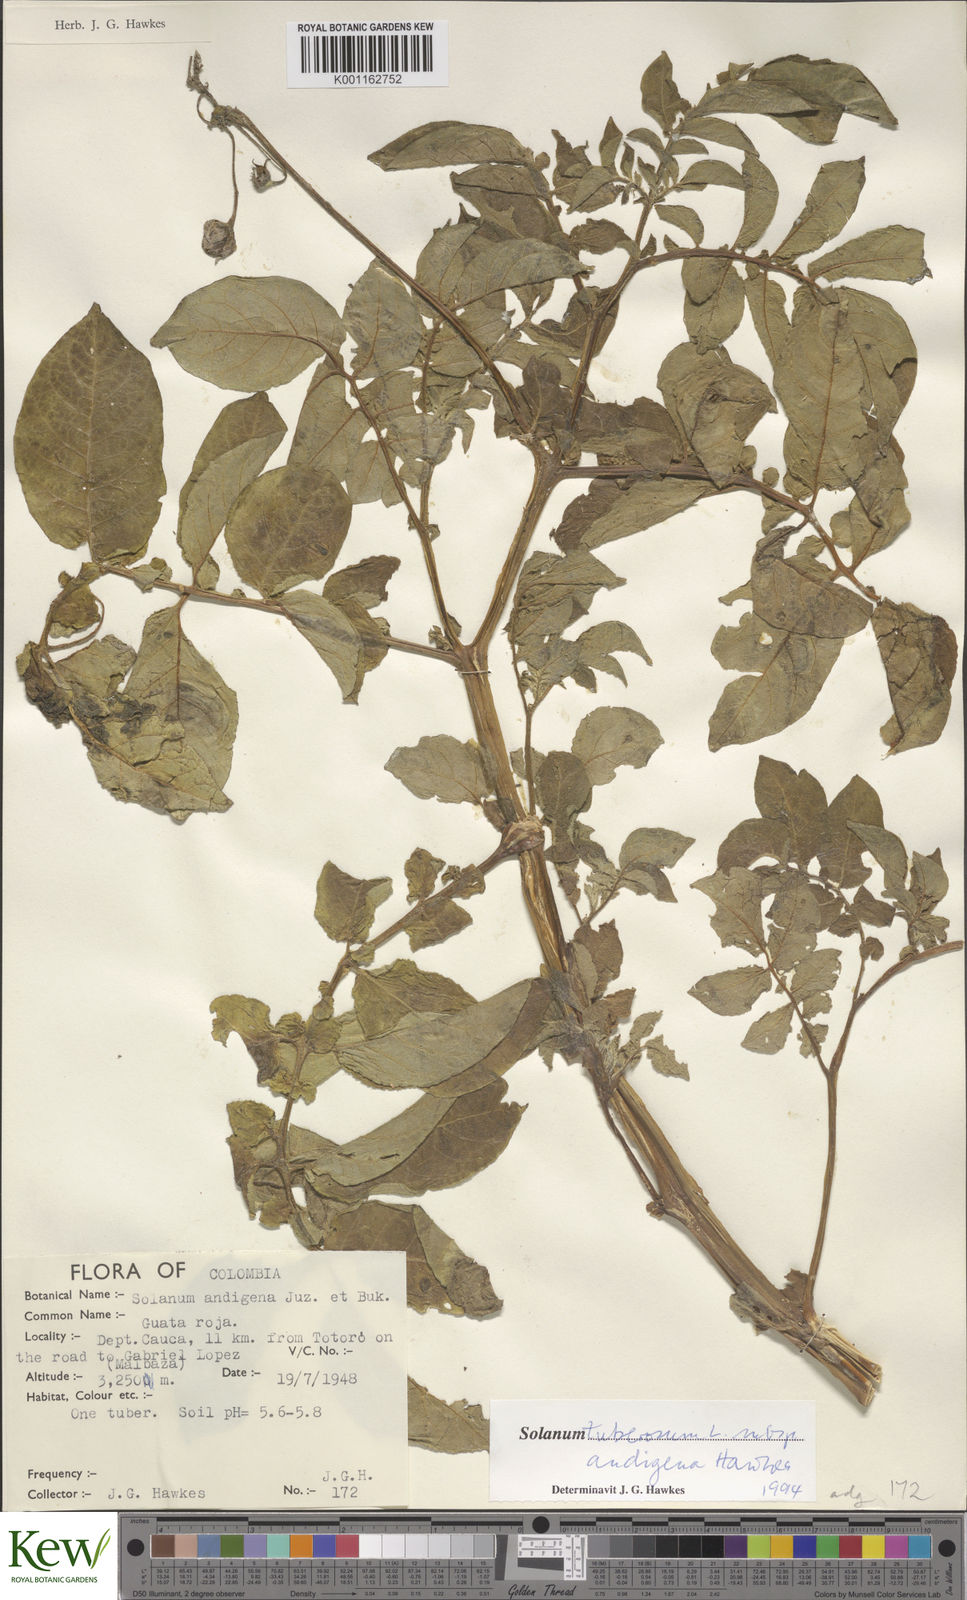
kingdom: Plantae
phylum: Tracheophyta
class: Magnoliopsida
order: Solanales
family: Solanaceae
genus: Solanum
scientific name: Solanum tuberosum
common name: Potato
